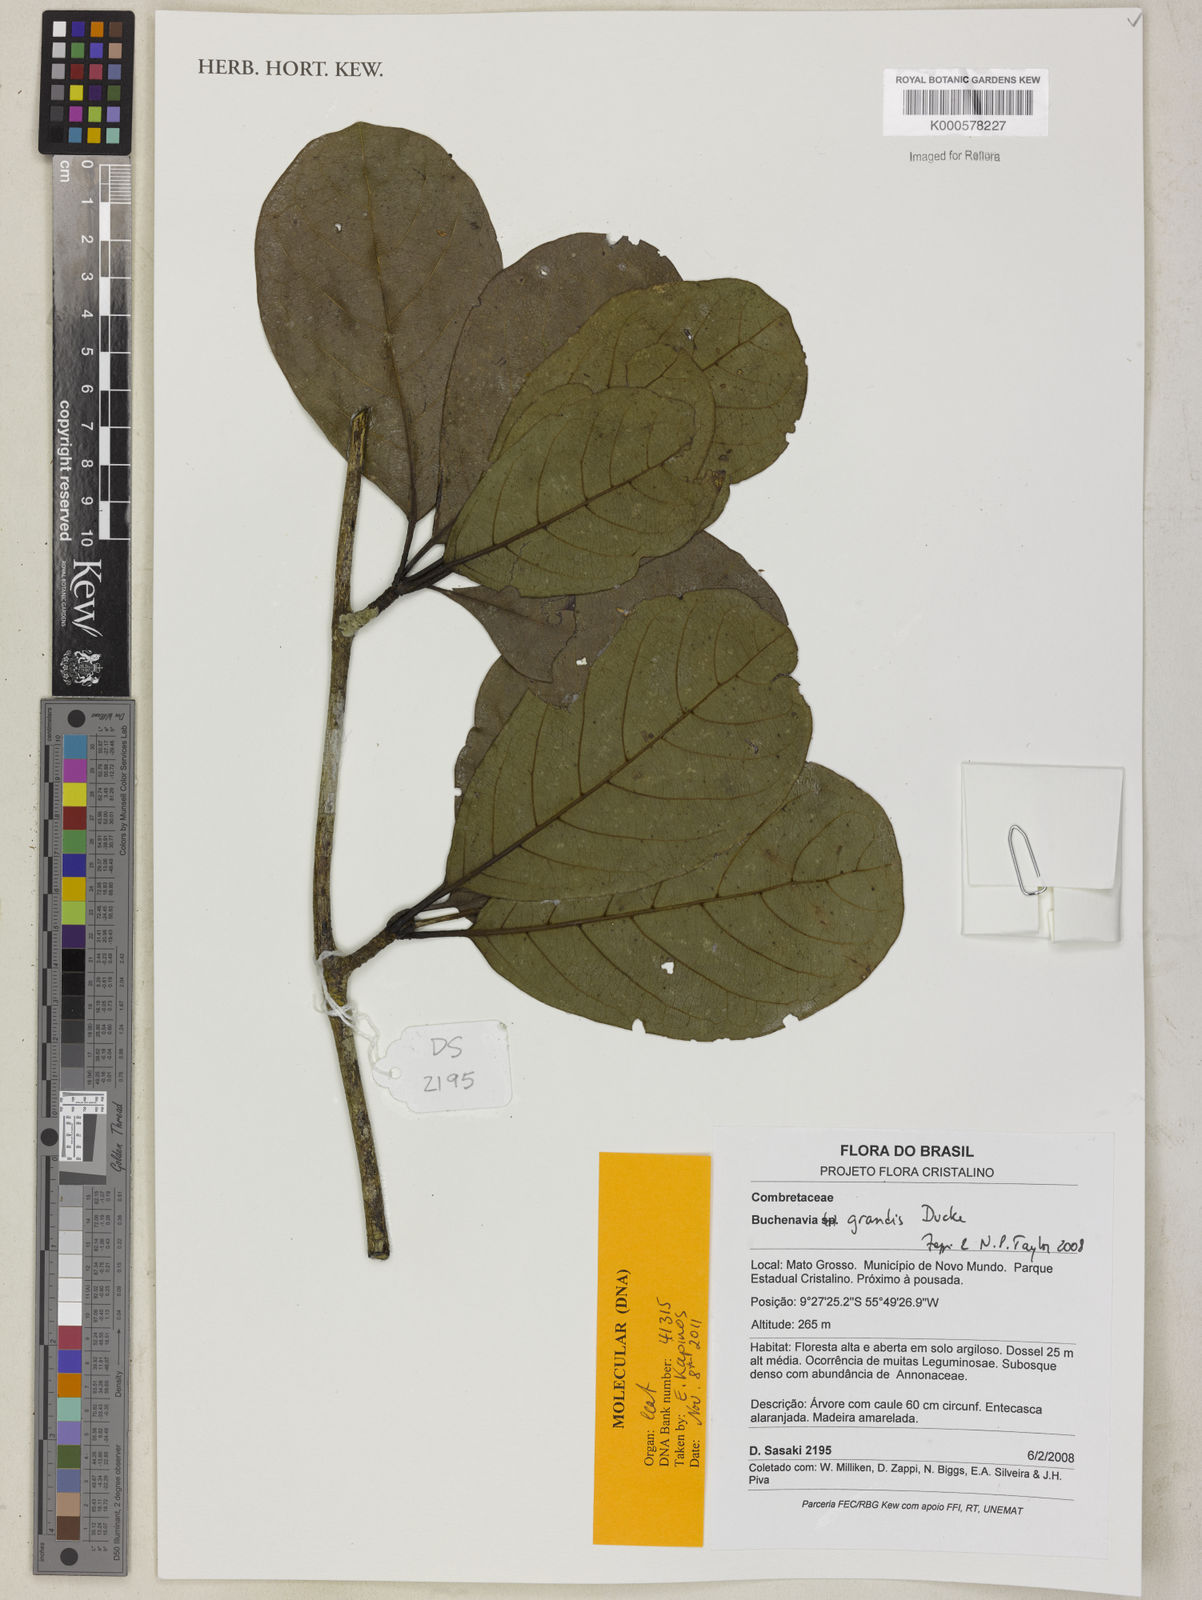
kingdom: Plantae
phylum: Tracheophyta
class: Magnoliopsida
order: Myrtales
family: Combretaceae
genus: Terminalia
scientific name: Terminalia grandis
